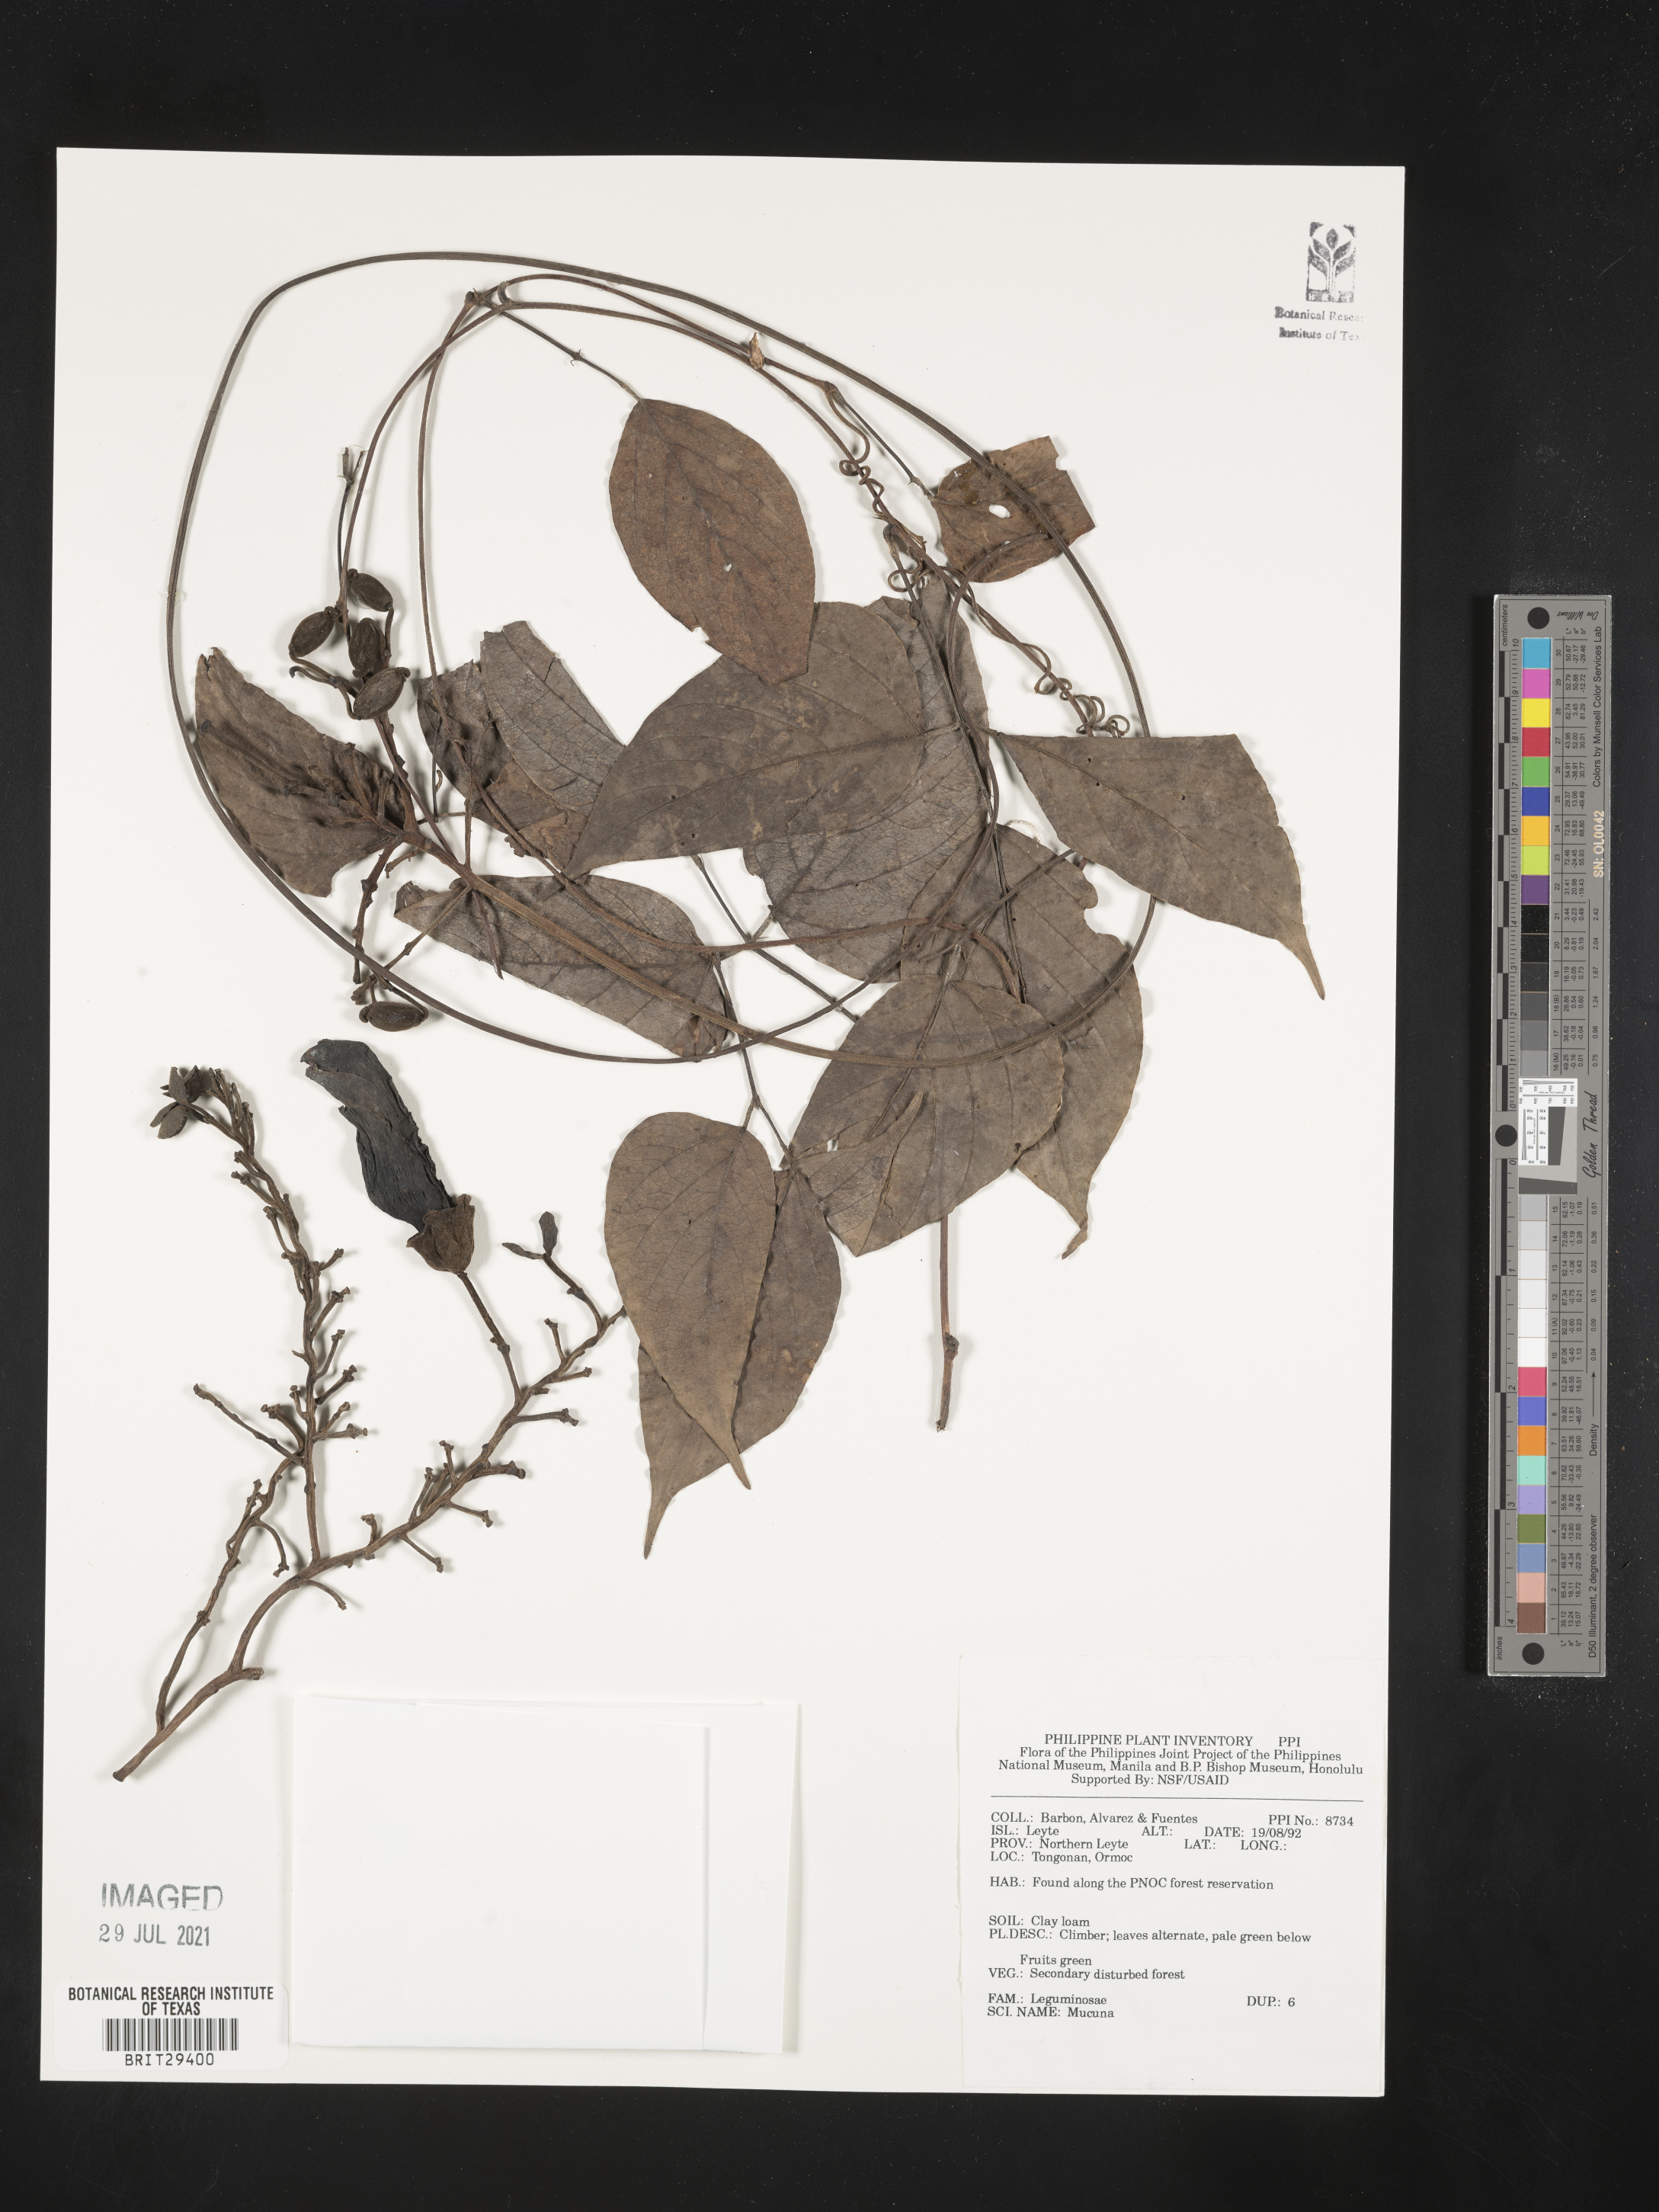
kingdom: Plantae
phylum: Tracheophyta
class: Magnoliopsida
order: Fabales
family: Fabaceae
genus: Mucuna
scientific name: Mucuna
